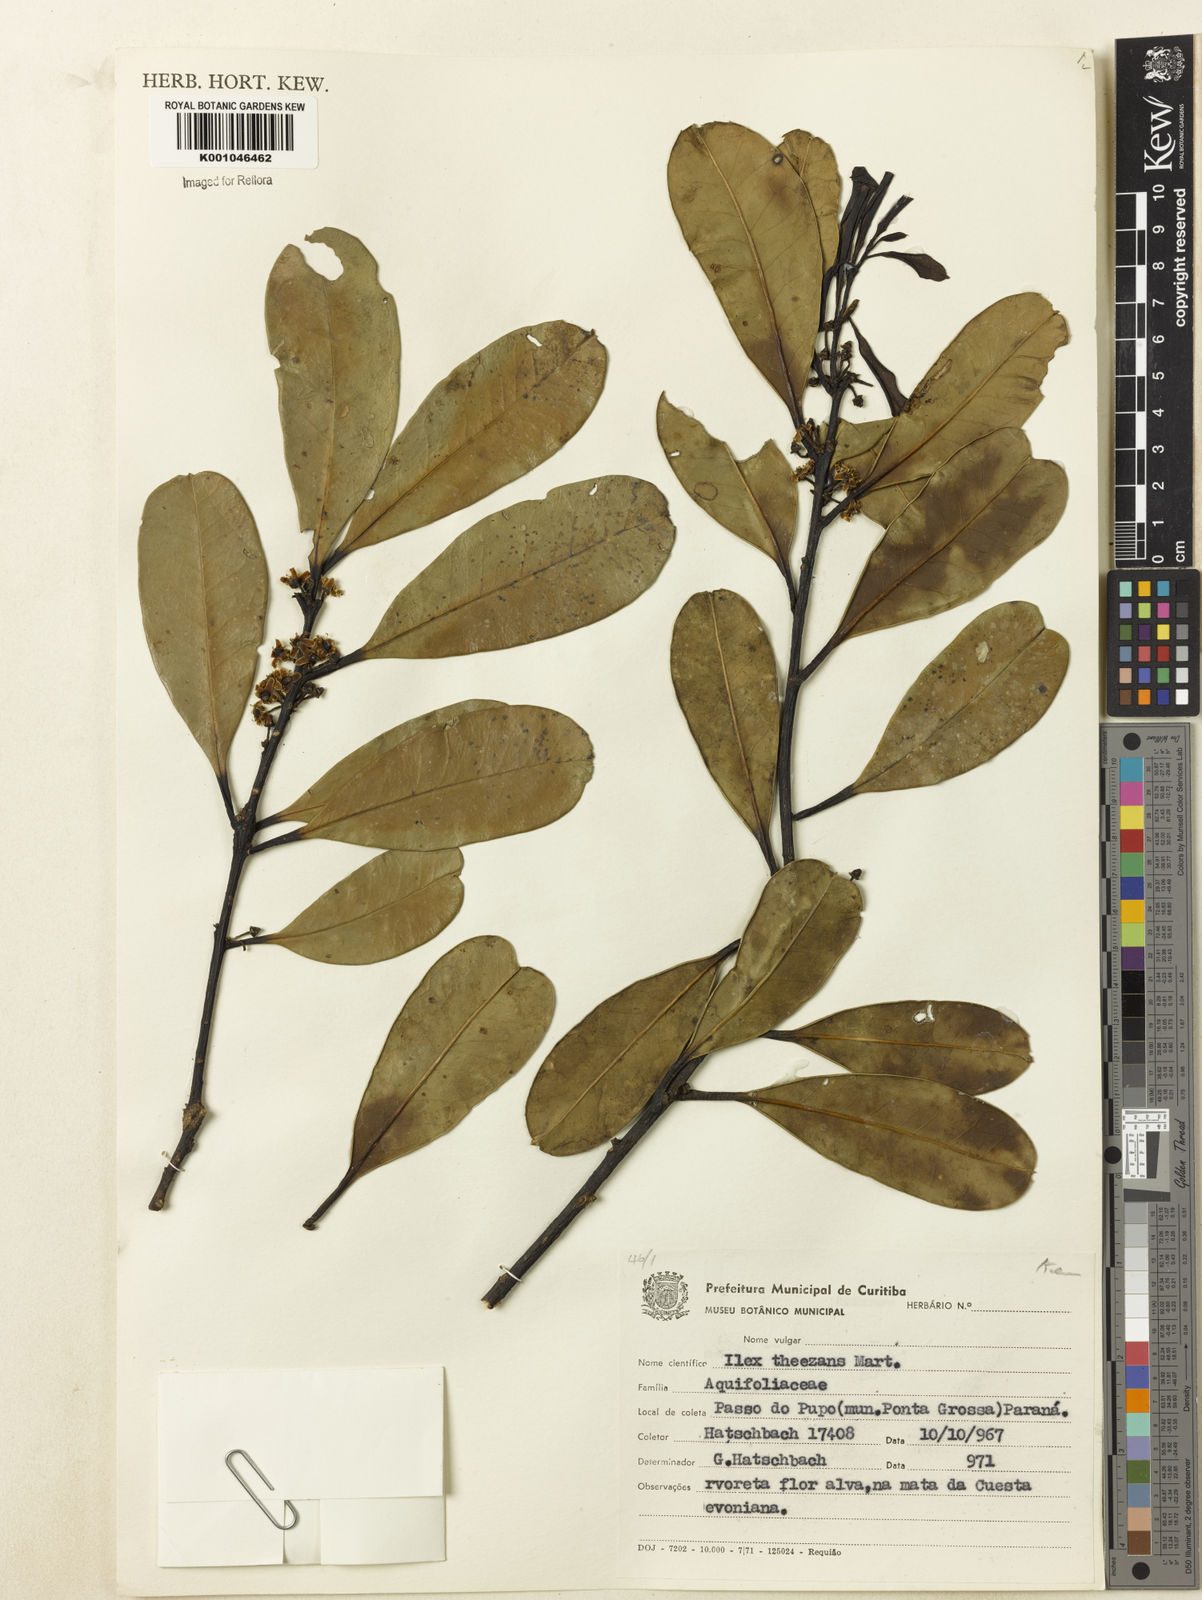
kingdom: Plantae
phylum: Tracheophyta
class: Magnoliopsida
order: Aquifoliales
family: Aquifoliaceae
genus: Ilex
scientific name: Ilex paraguariensis
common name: Paraguay tea
